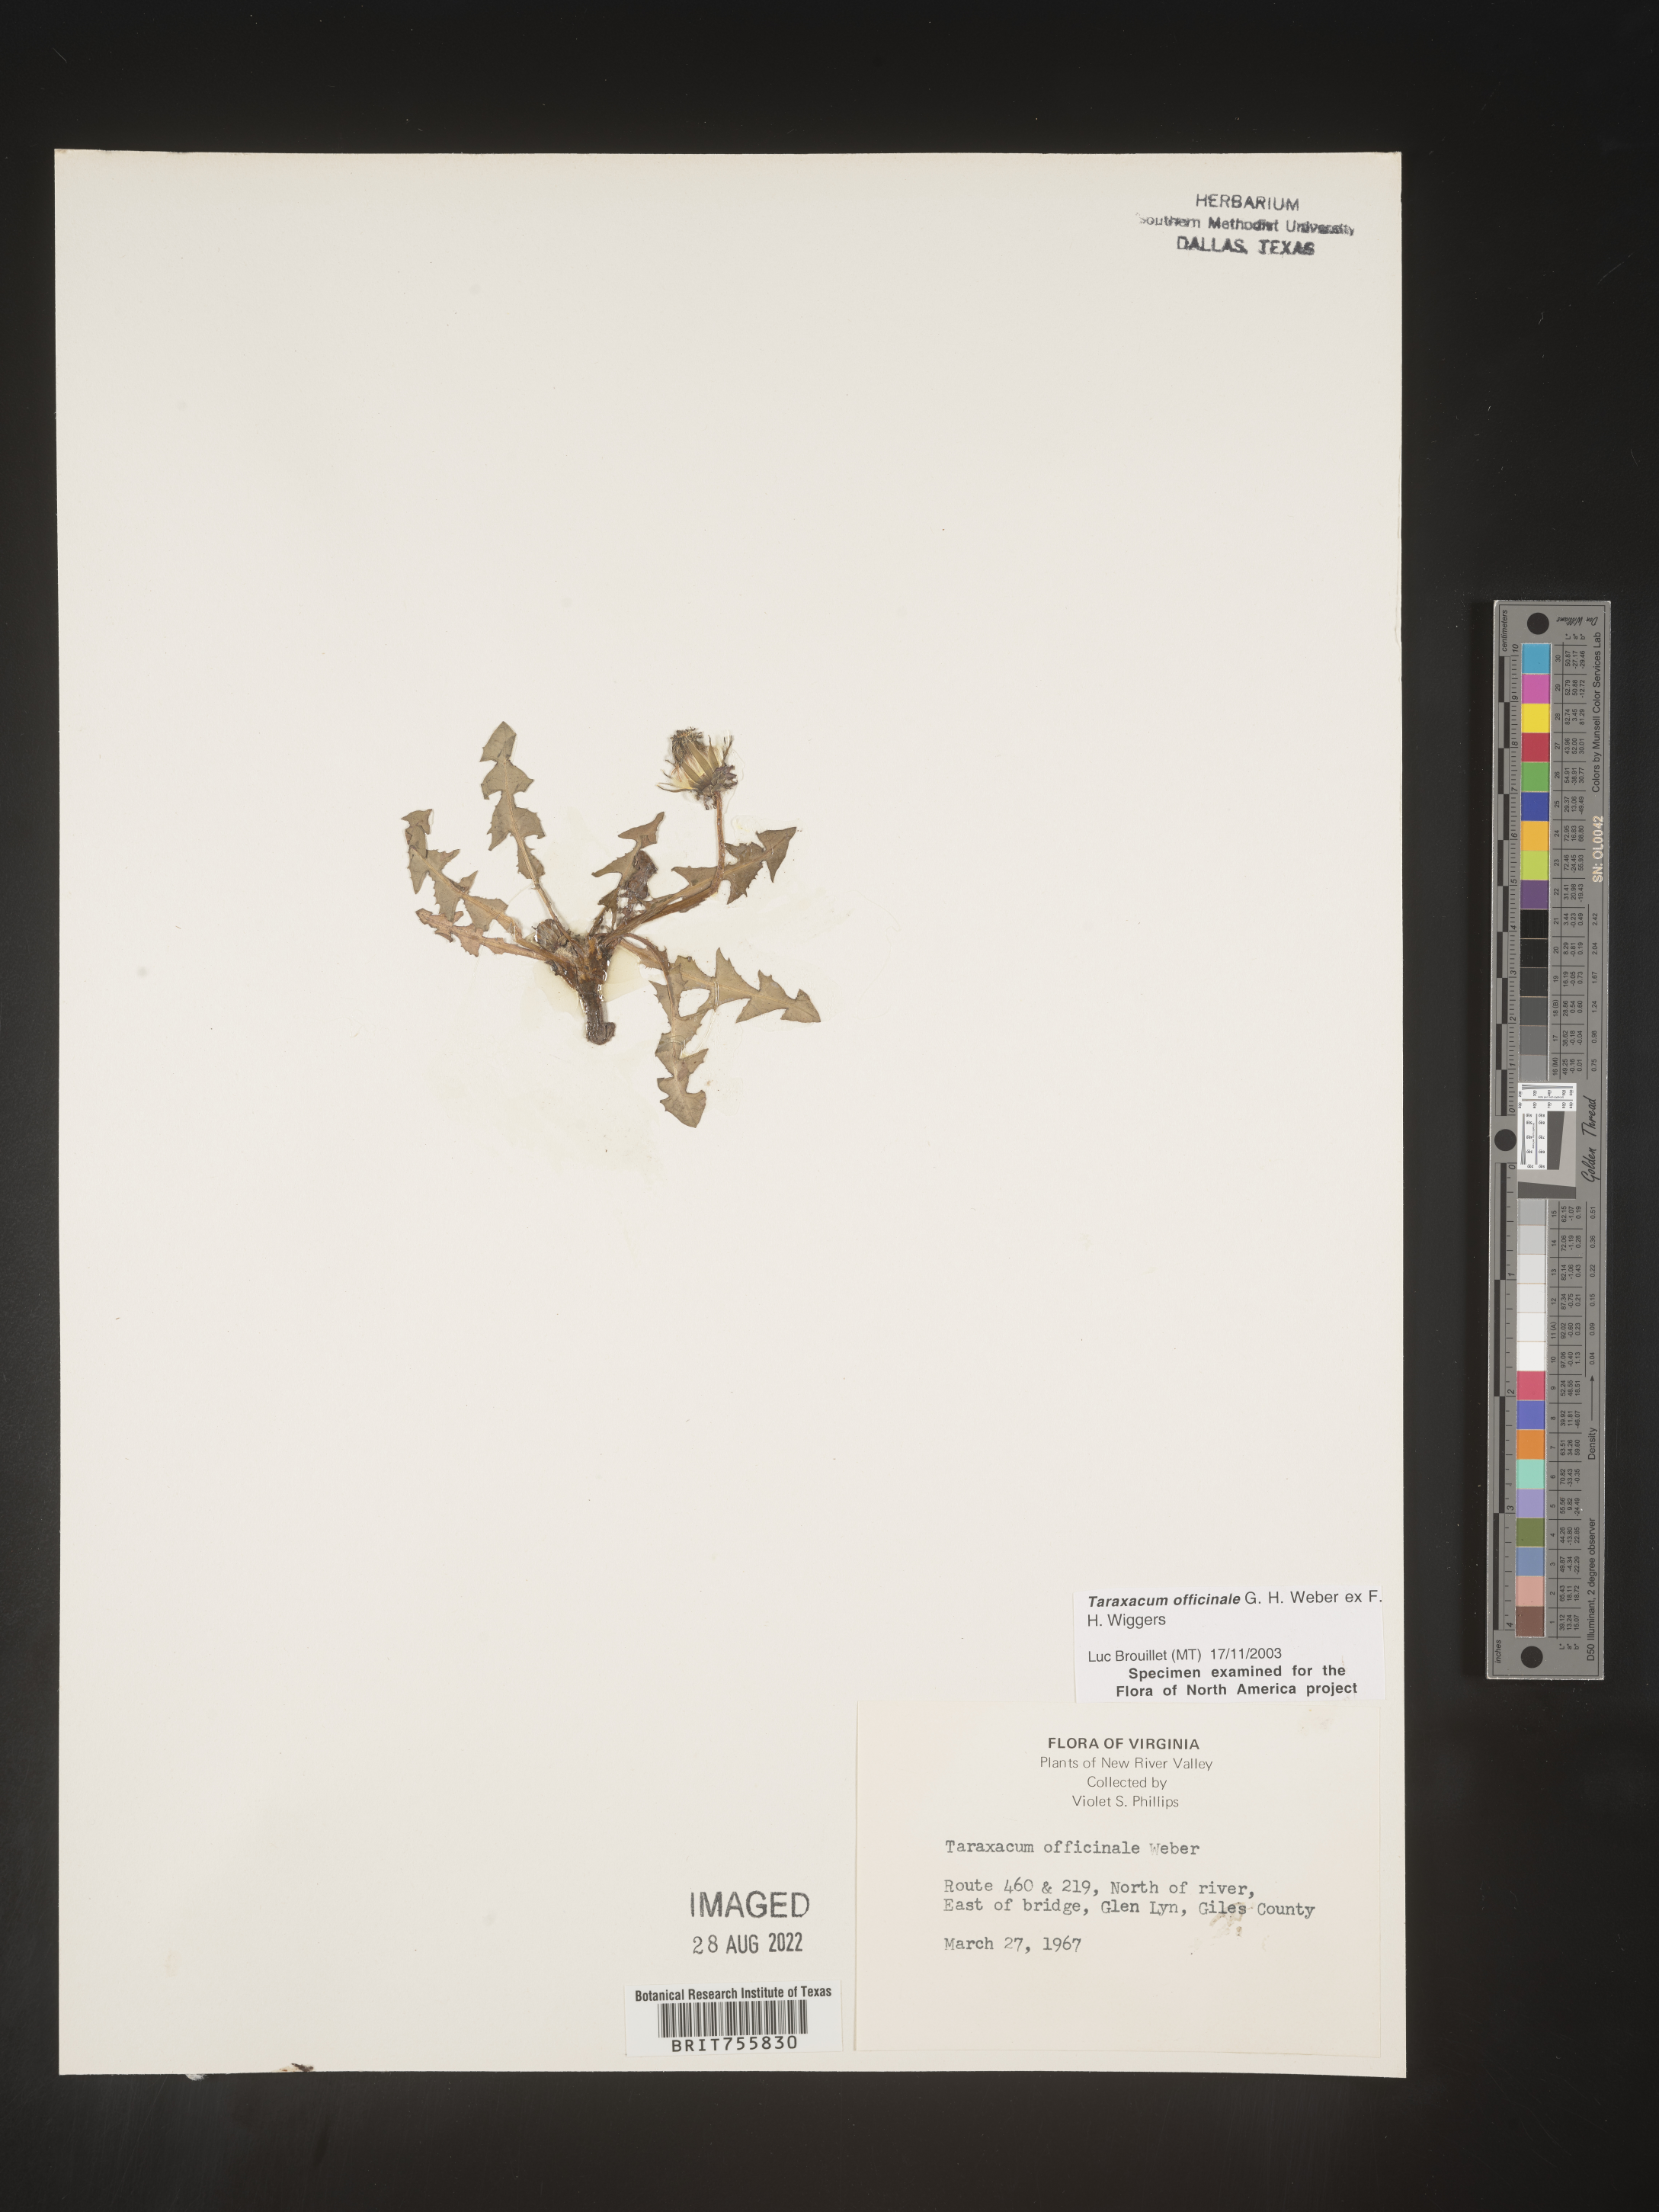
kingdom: Plantae
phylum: Tracheophyta
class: Magnoliopsida
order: Asterales
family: Asteraceae
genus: Taraxacum
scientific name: Taraxacum officinale
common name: Common dandelion
